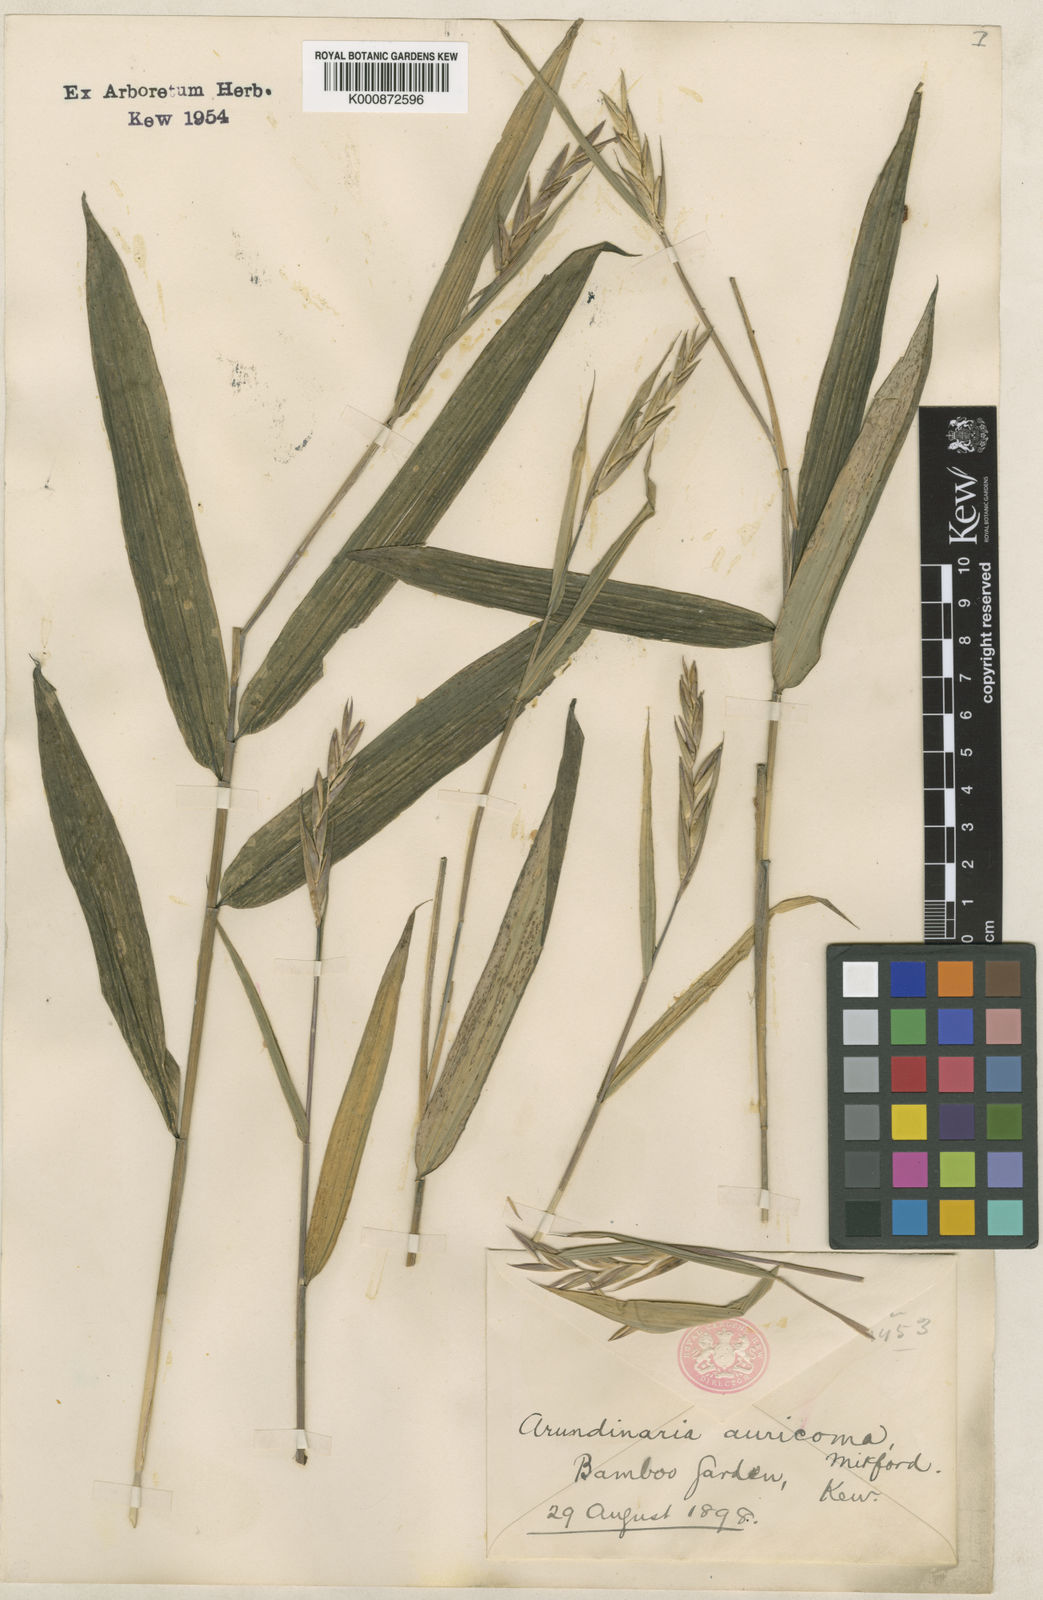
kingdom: Plantae
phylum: Tracheophyta
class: Liliopsida
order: Poales
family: Poaceae
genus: Pleioblastus
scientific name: Pleioblastus viridistriatus
